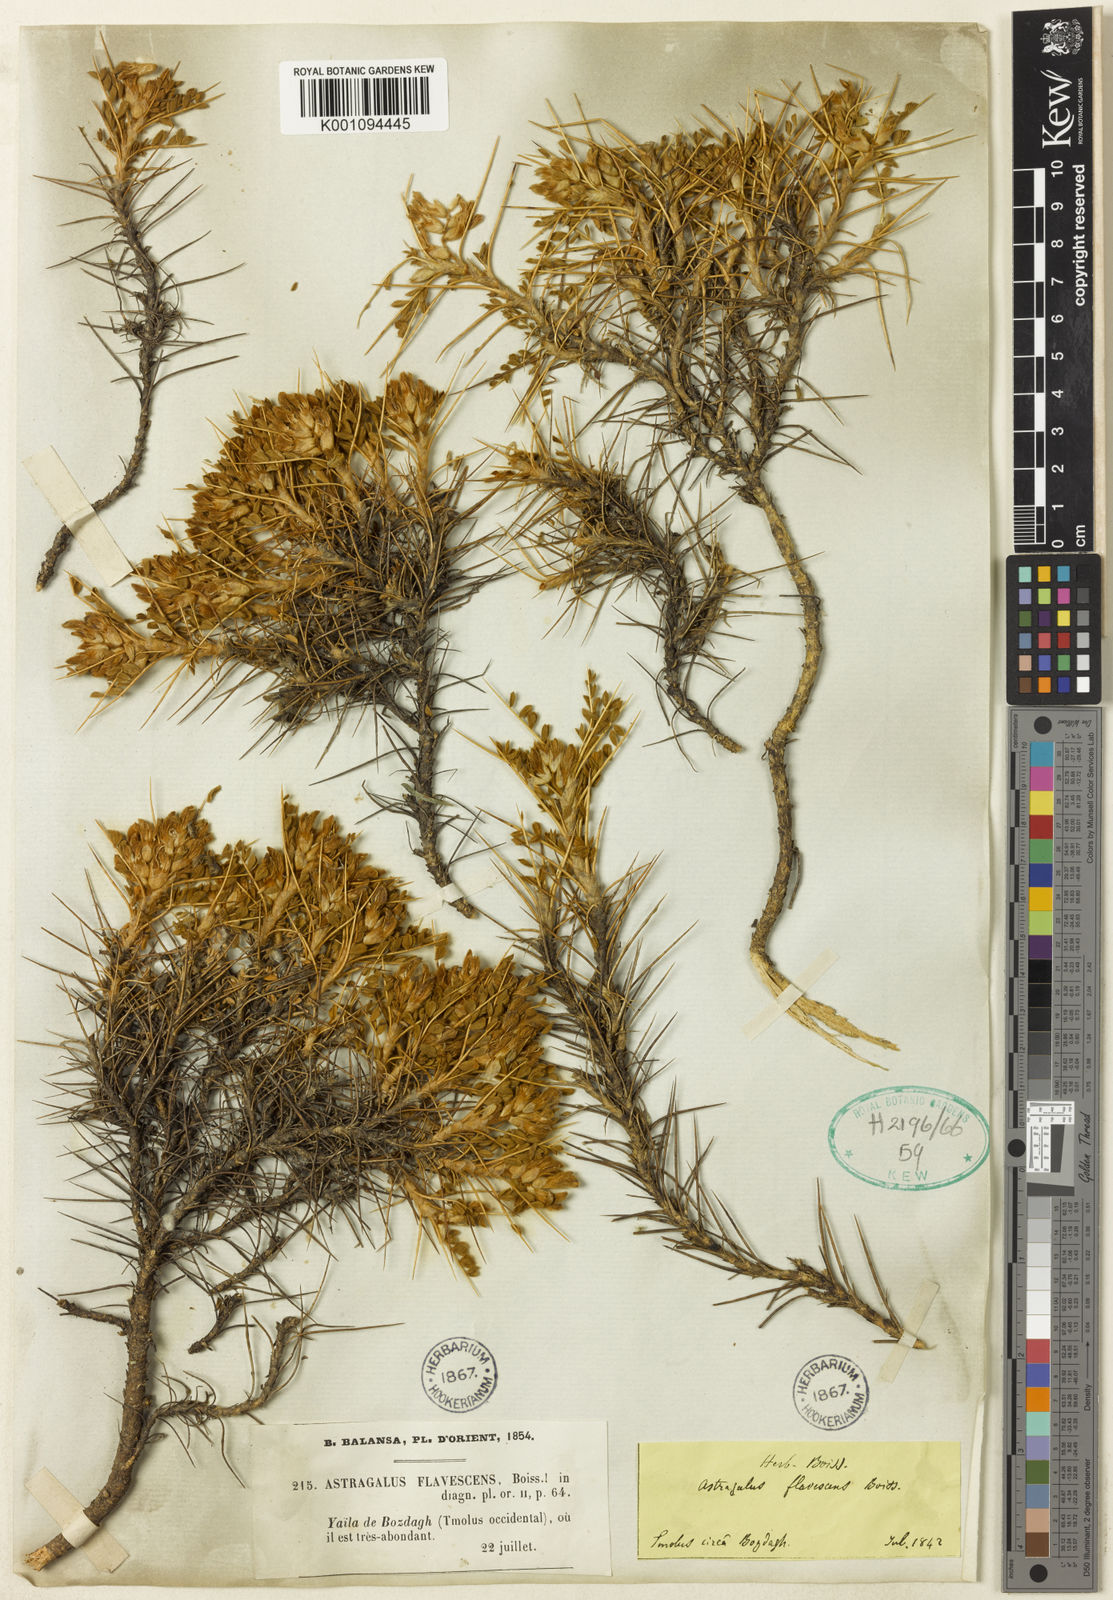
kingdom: Plantae
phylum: Tracheophyta
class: Magnoliopsida
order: Fabales
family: Fabaceae
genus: Astragalus
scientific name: Astragalus
